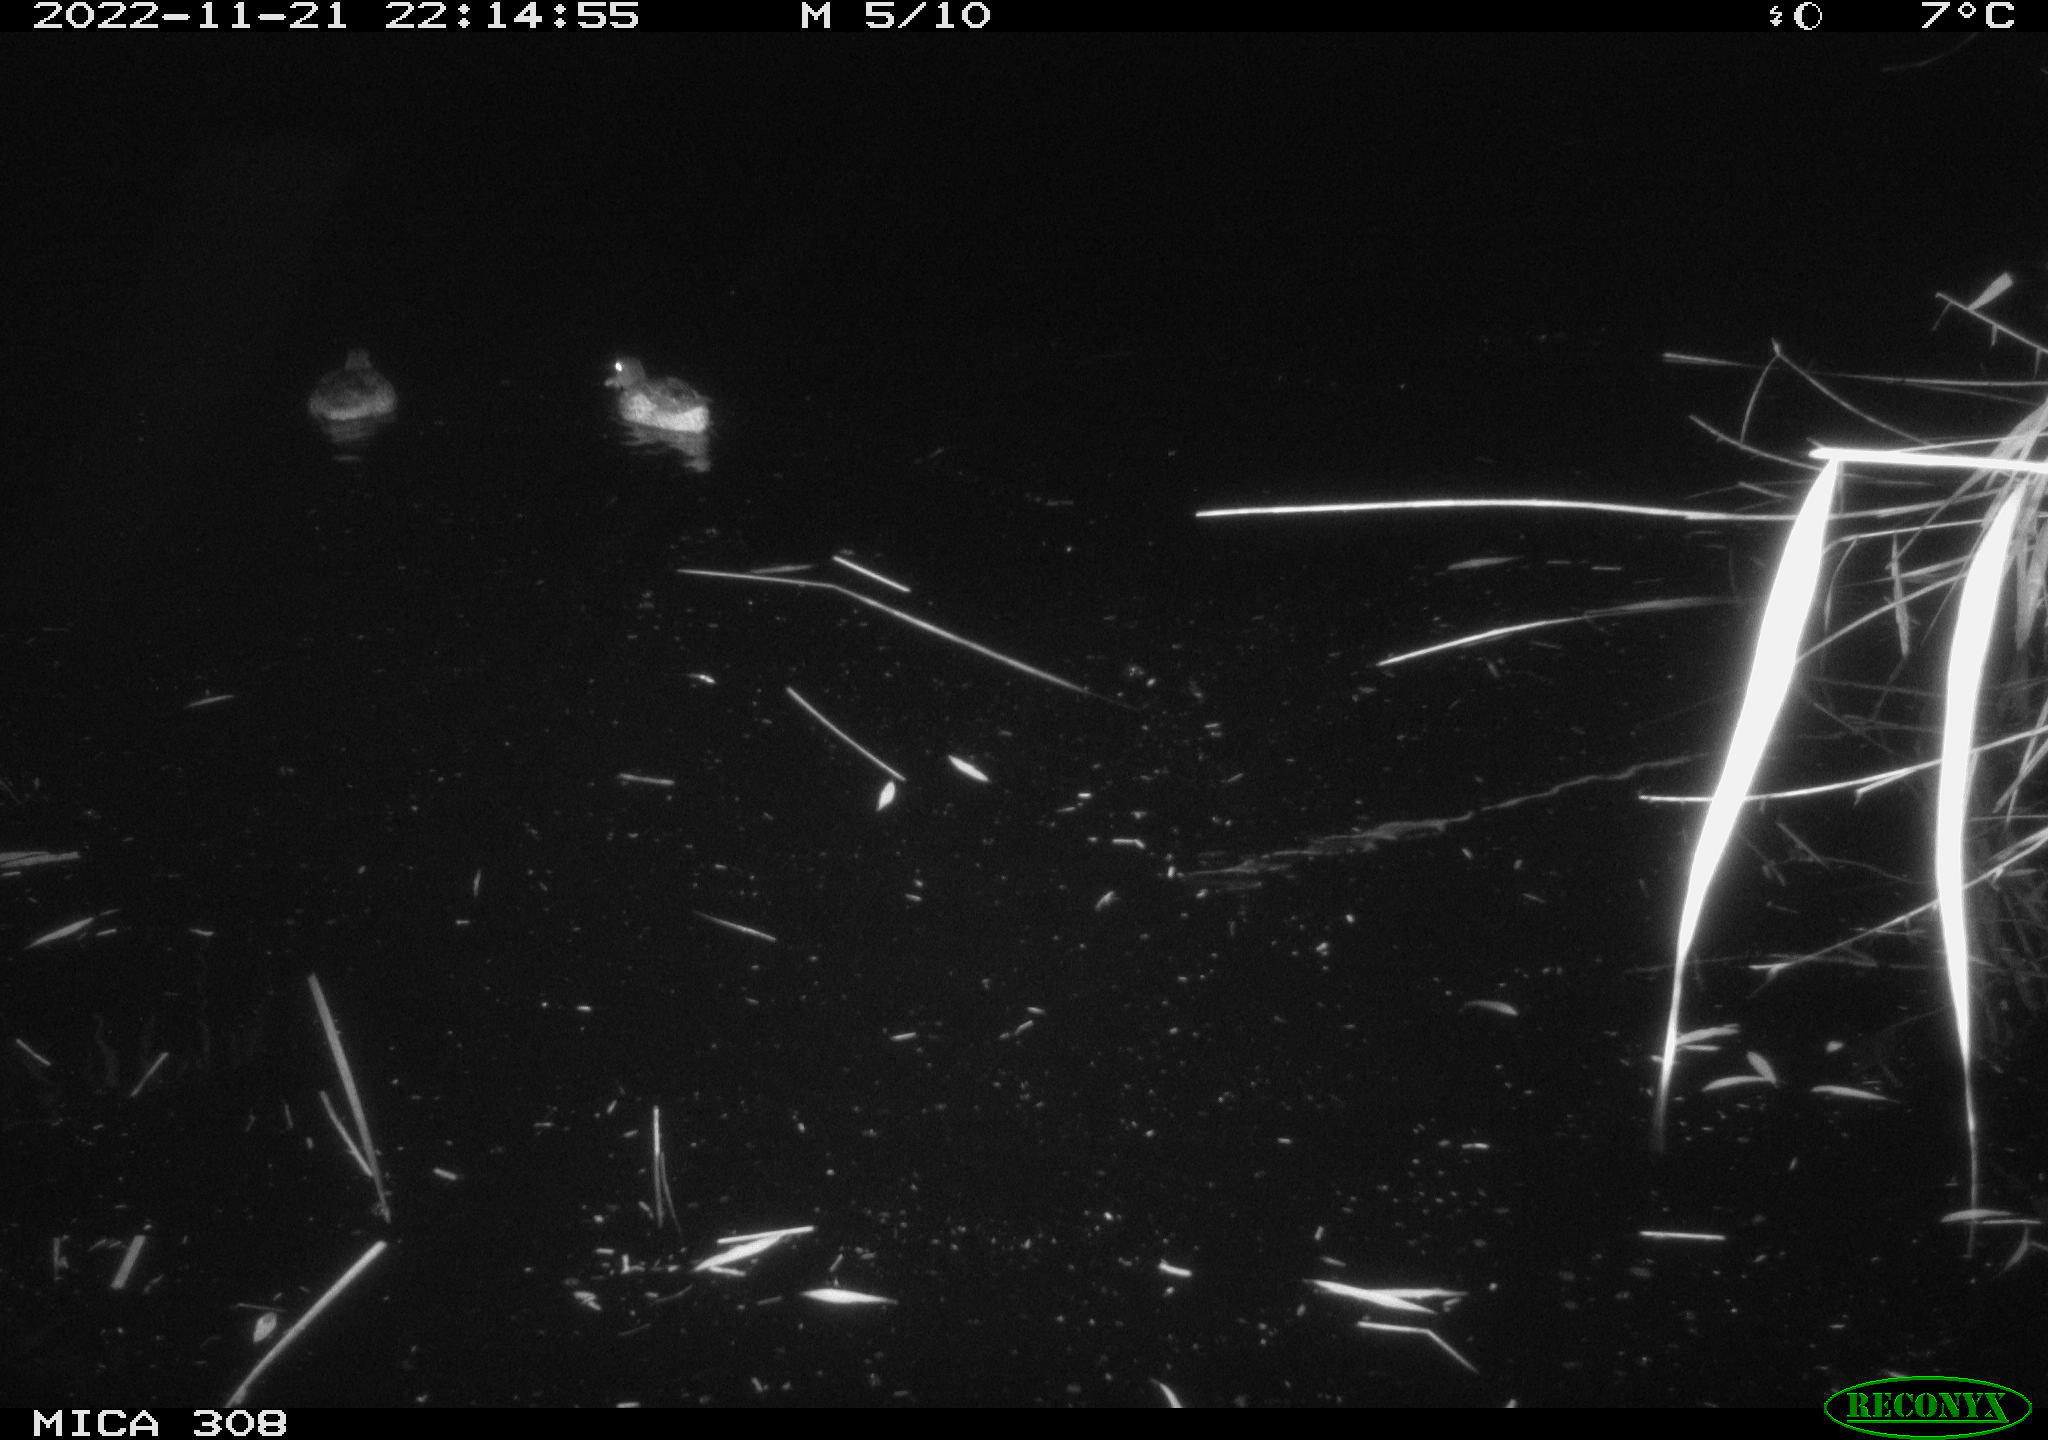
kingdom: Animalia
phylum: Chordata
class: Aves
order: Anseriformes
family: Anatidae
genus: Anas
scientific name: Anas
